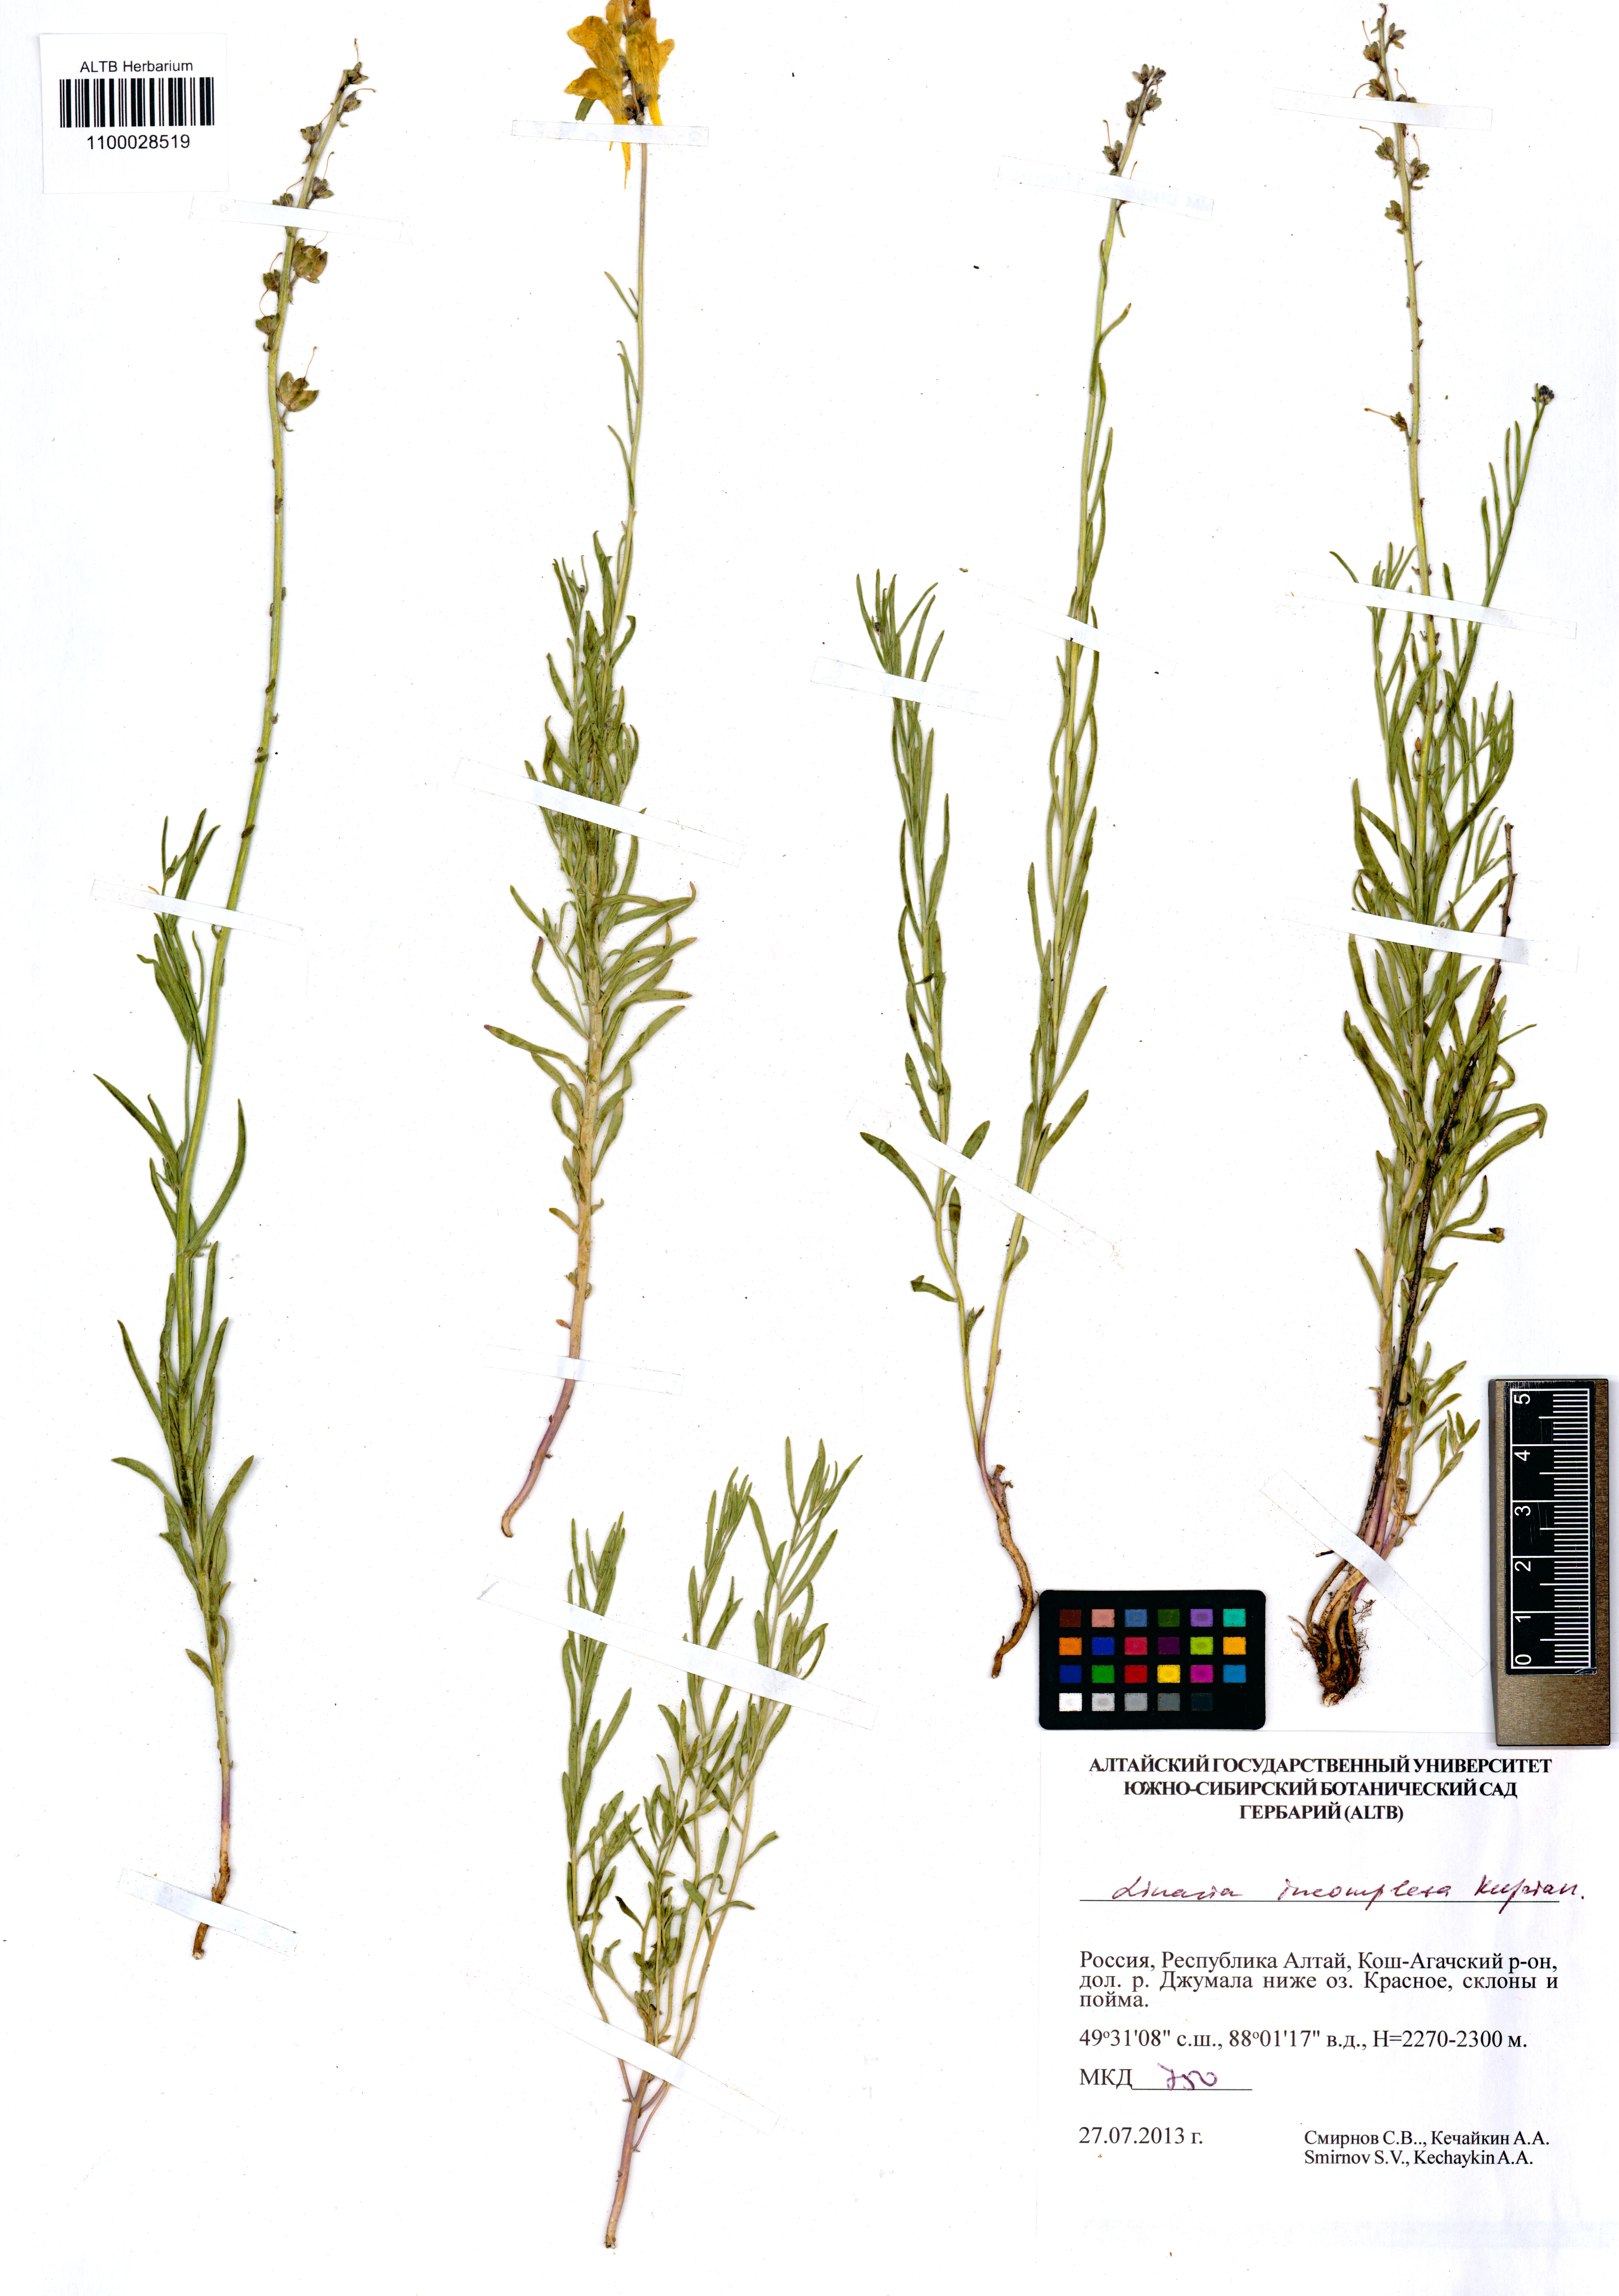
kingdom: Plantae
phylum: Tracheophyta
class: Magnoliopsida
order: Lamiales
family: Plantaginaceae
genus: Linaria
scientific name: Linaria incompleta
